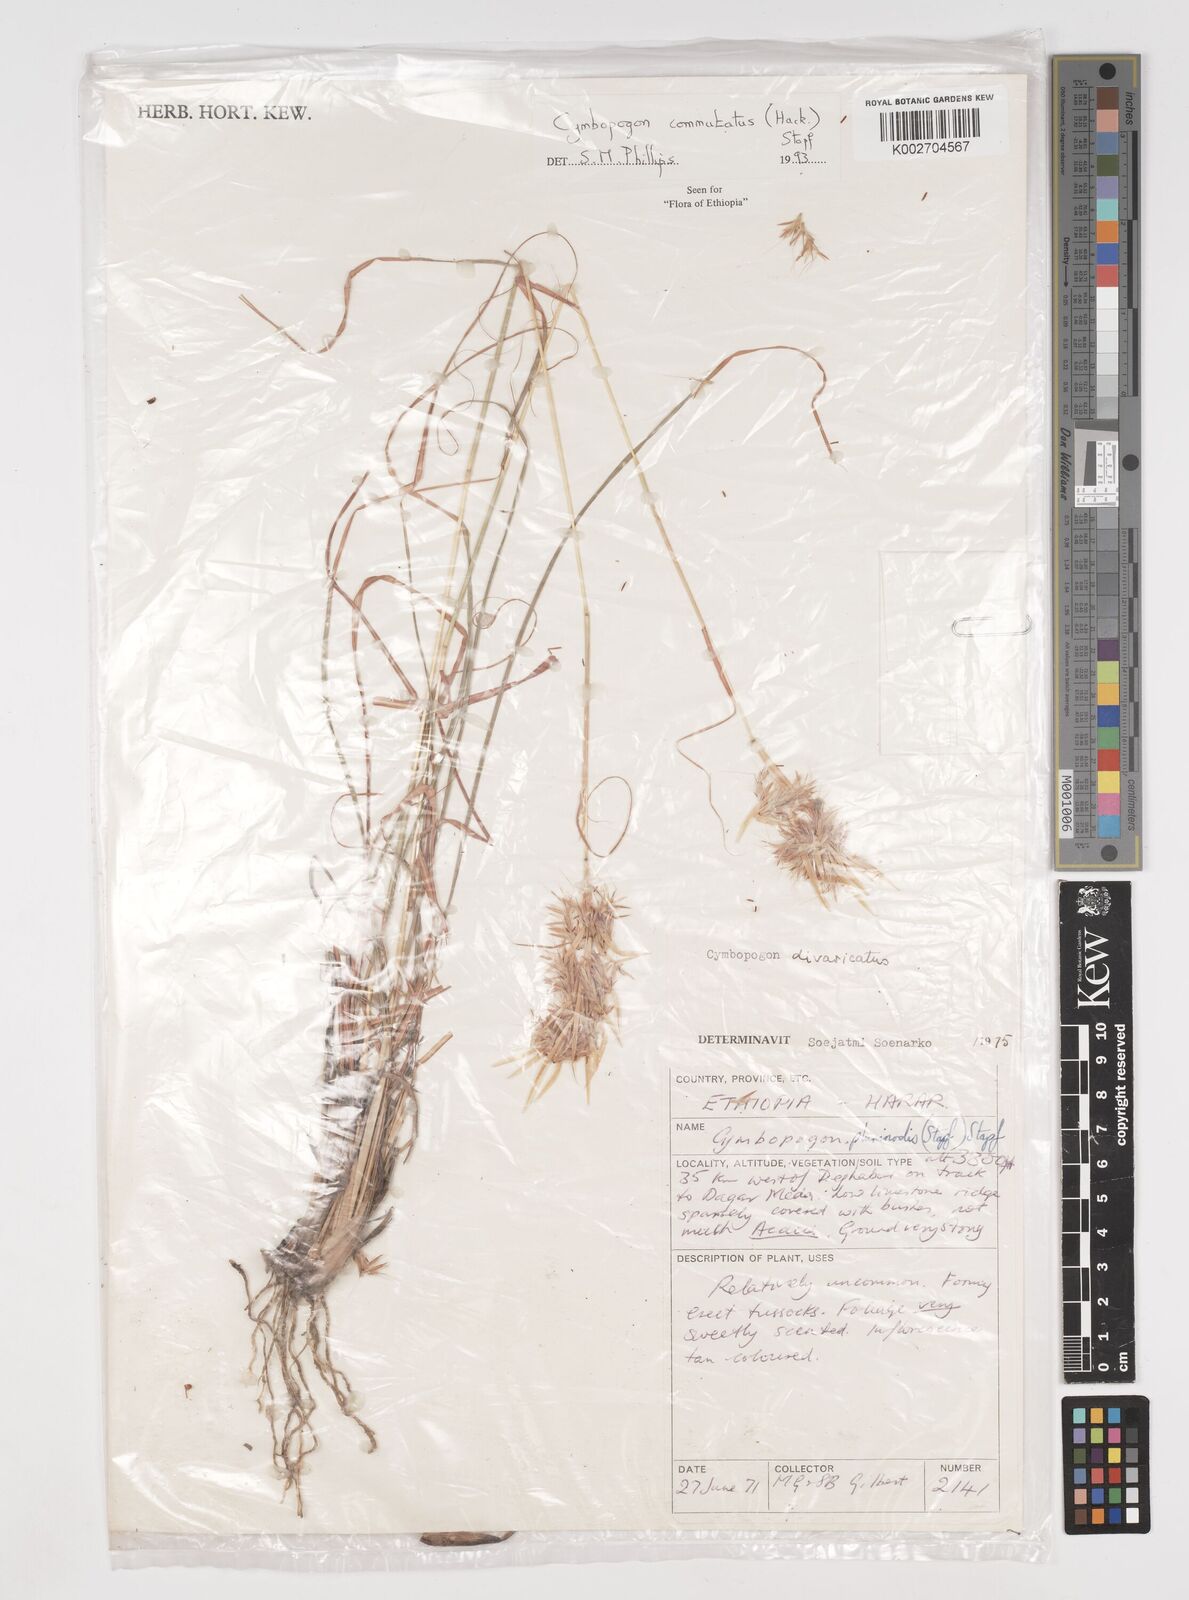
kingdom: Plantae
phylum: Tracheophyta
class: Liliopsida
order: Poales
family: Poaceae
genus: Cymbopogon
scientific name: Cymbopogon commutatus
